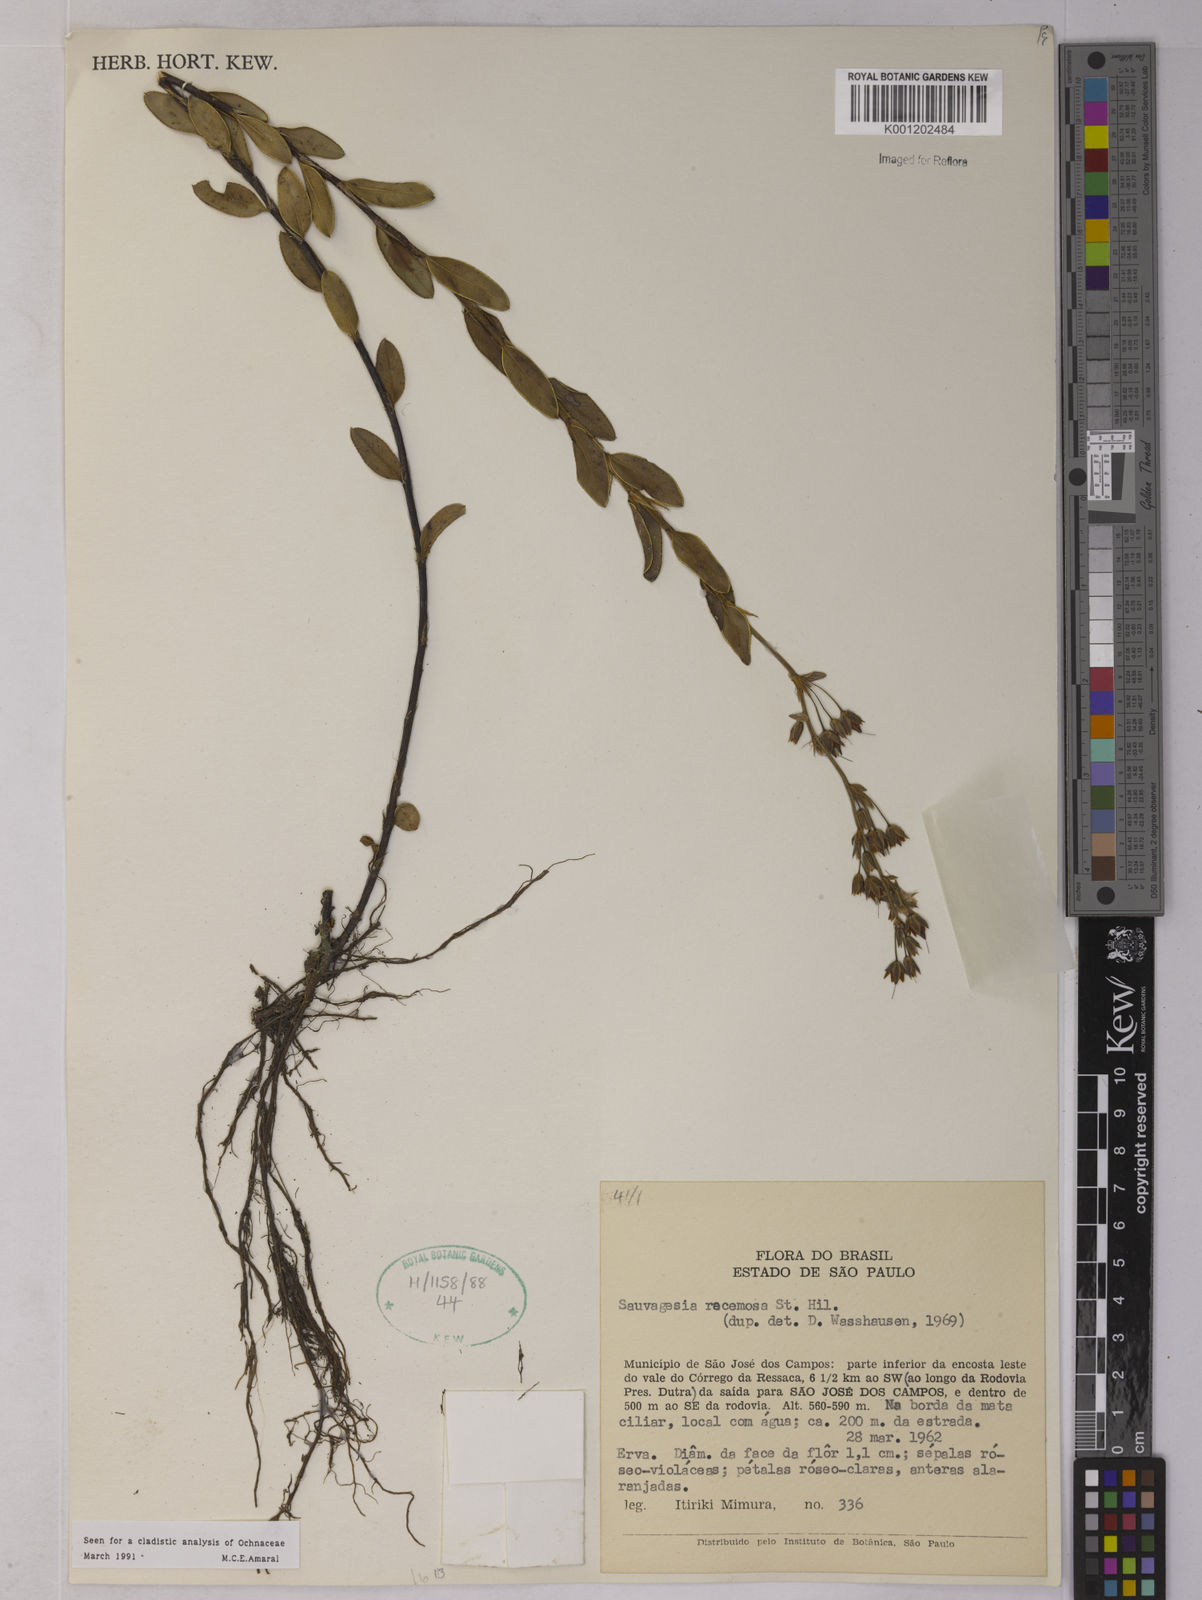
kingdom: Plantae
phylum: Tracheophyta
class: Magnoliopsida
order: Malpighiales
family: Ochnaceae
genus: Sauvagesia
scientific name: Sauvagesia racemosa
